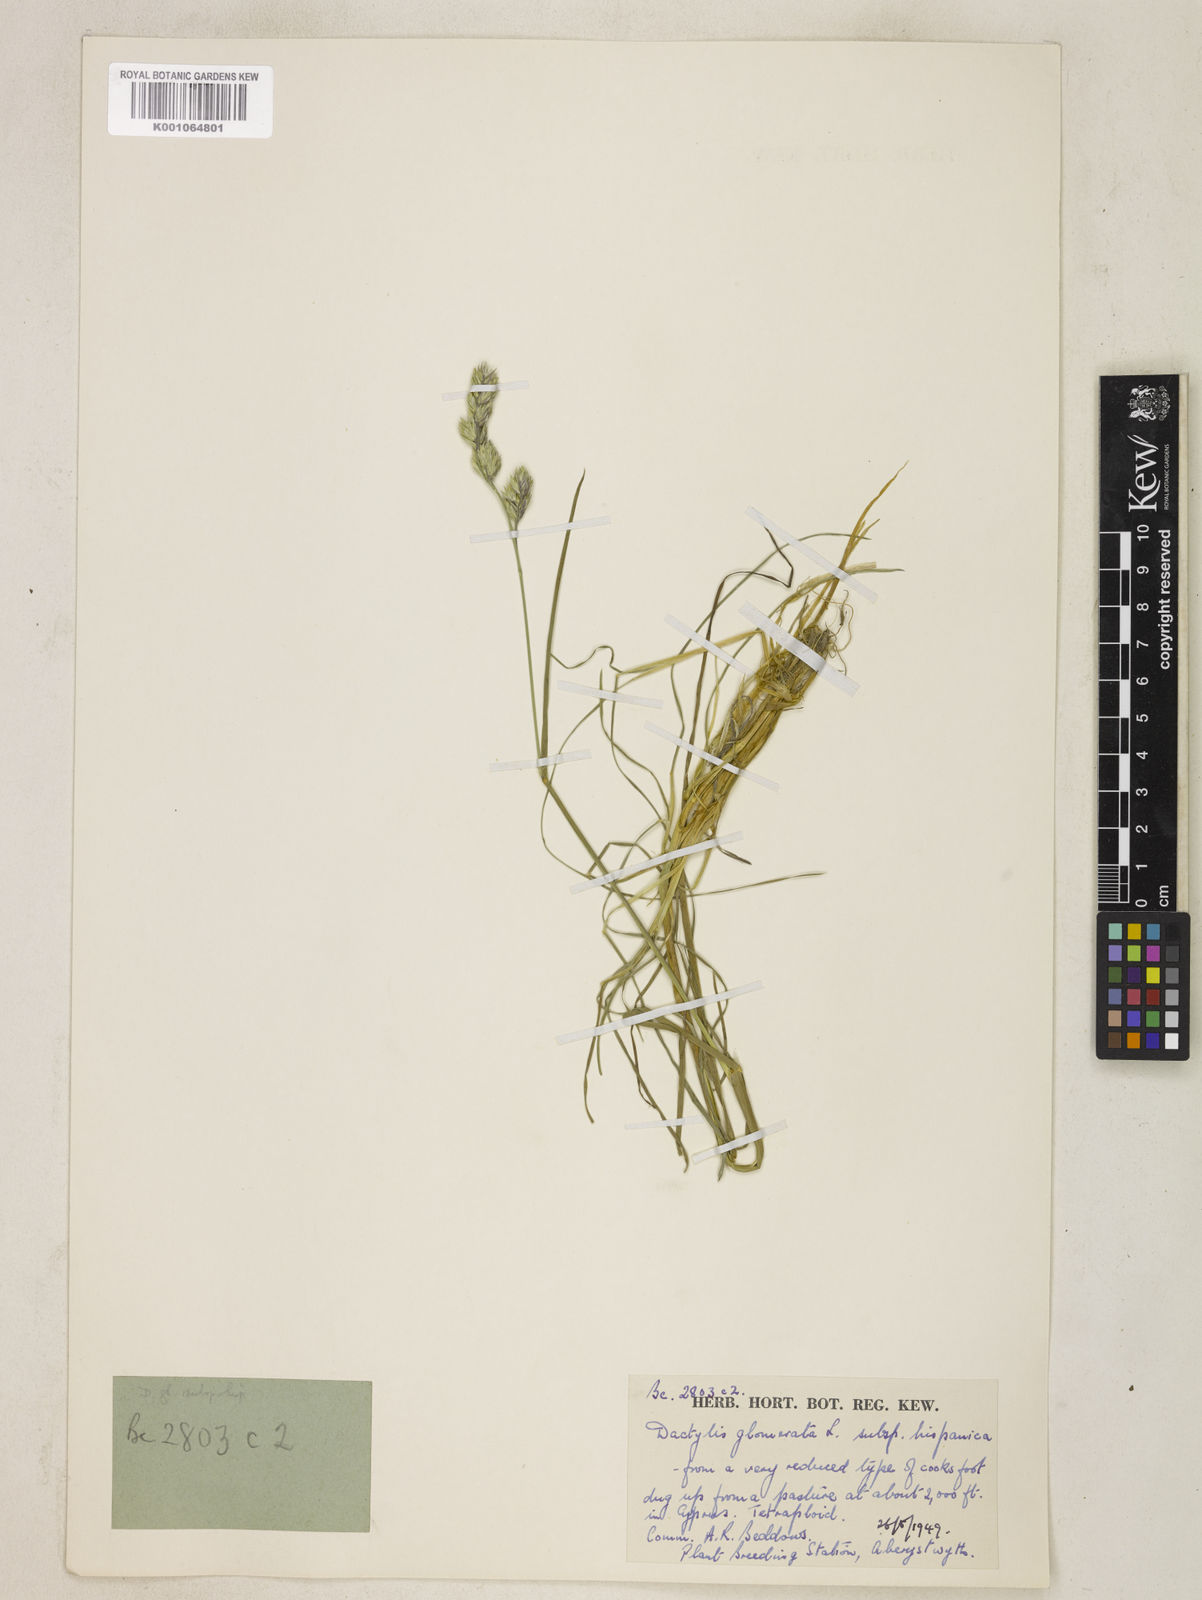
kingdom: Plantae
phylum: Tracheophyta
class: Liliopsida
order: Poales
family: Poaceae
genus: Dactylis
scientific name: Dactylis glomerata
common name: Orchardgrass
